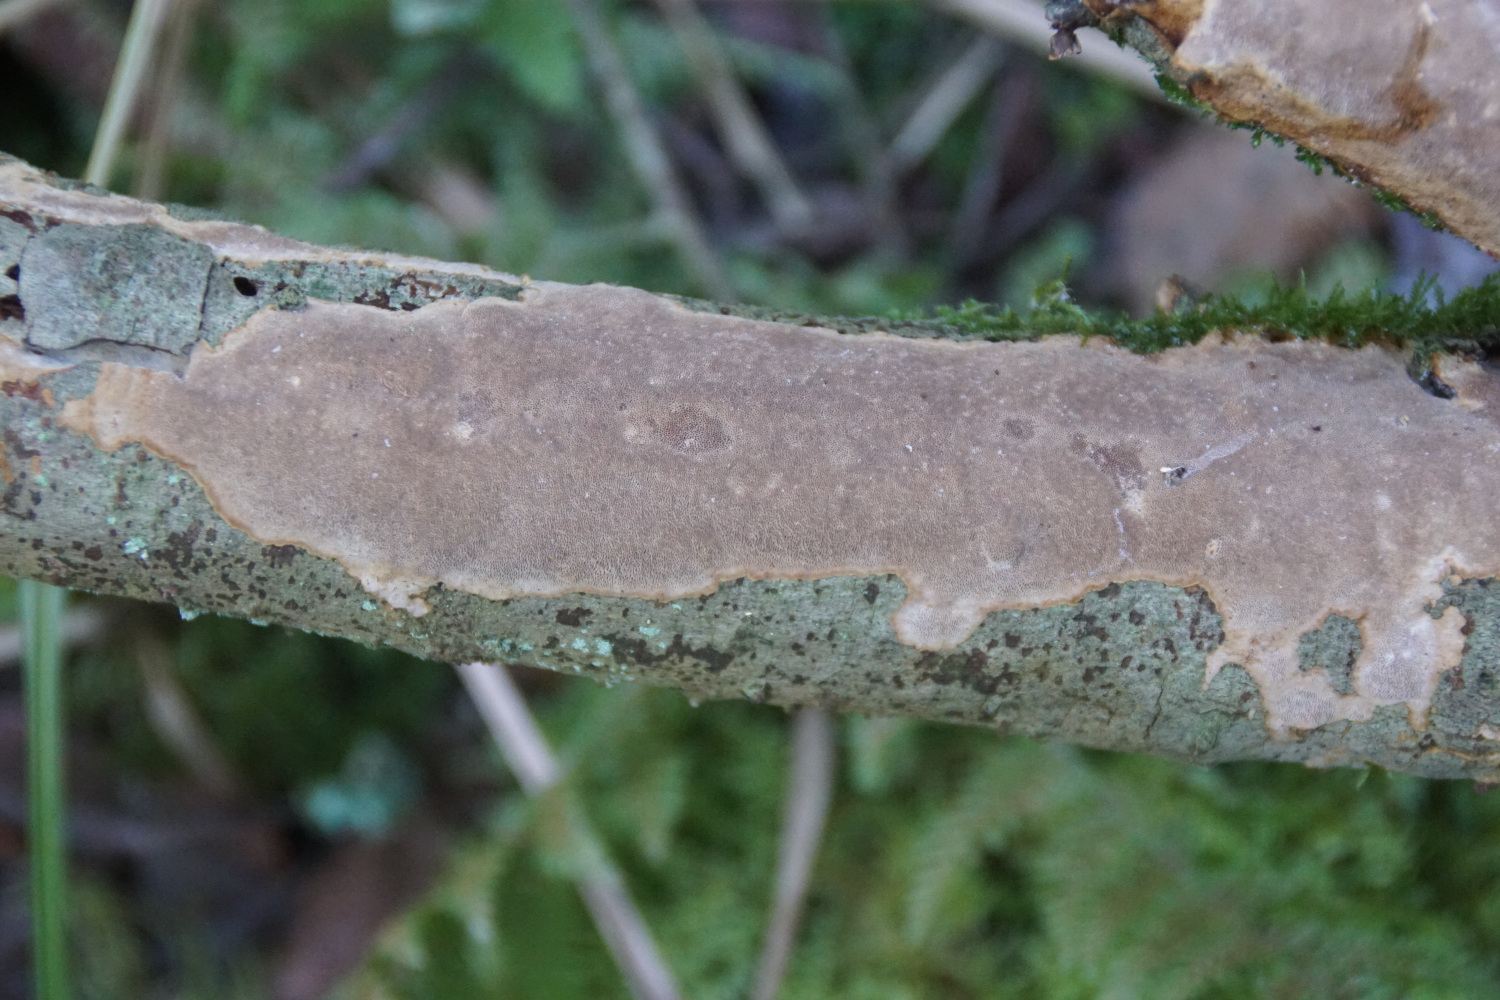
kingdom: Fungi
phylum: Basidiomycota
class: Agaricomycetes
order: Hymenochaetales
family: Hymenochaetaceae
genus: Fuscoporia
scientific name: Fuscoporia ferrea
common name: skorpe-ildporesvamp
